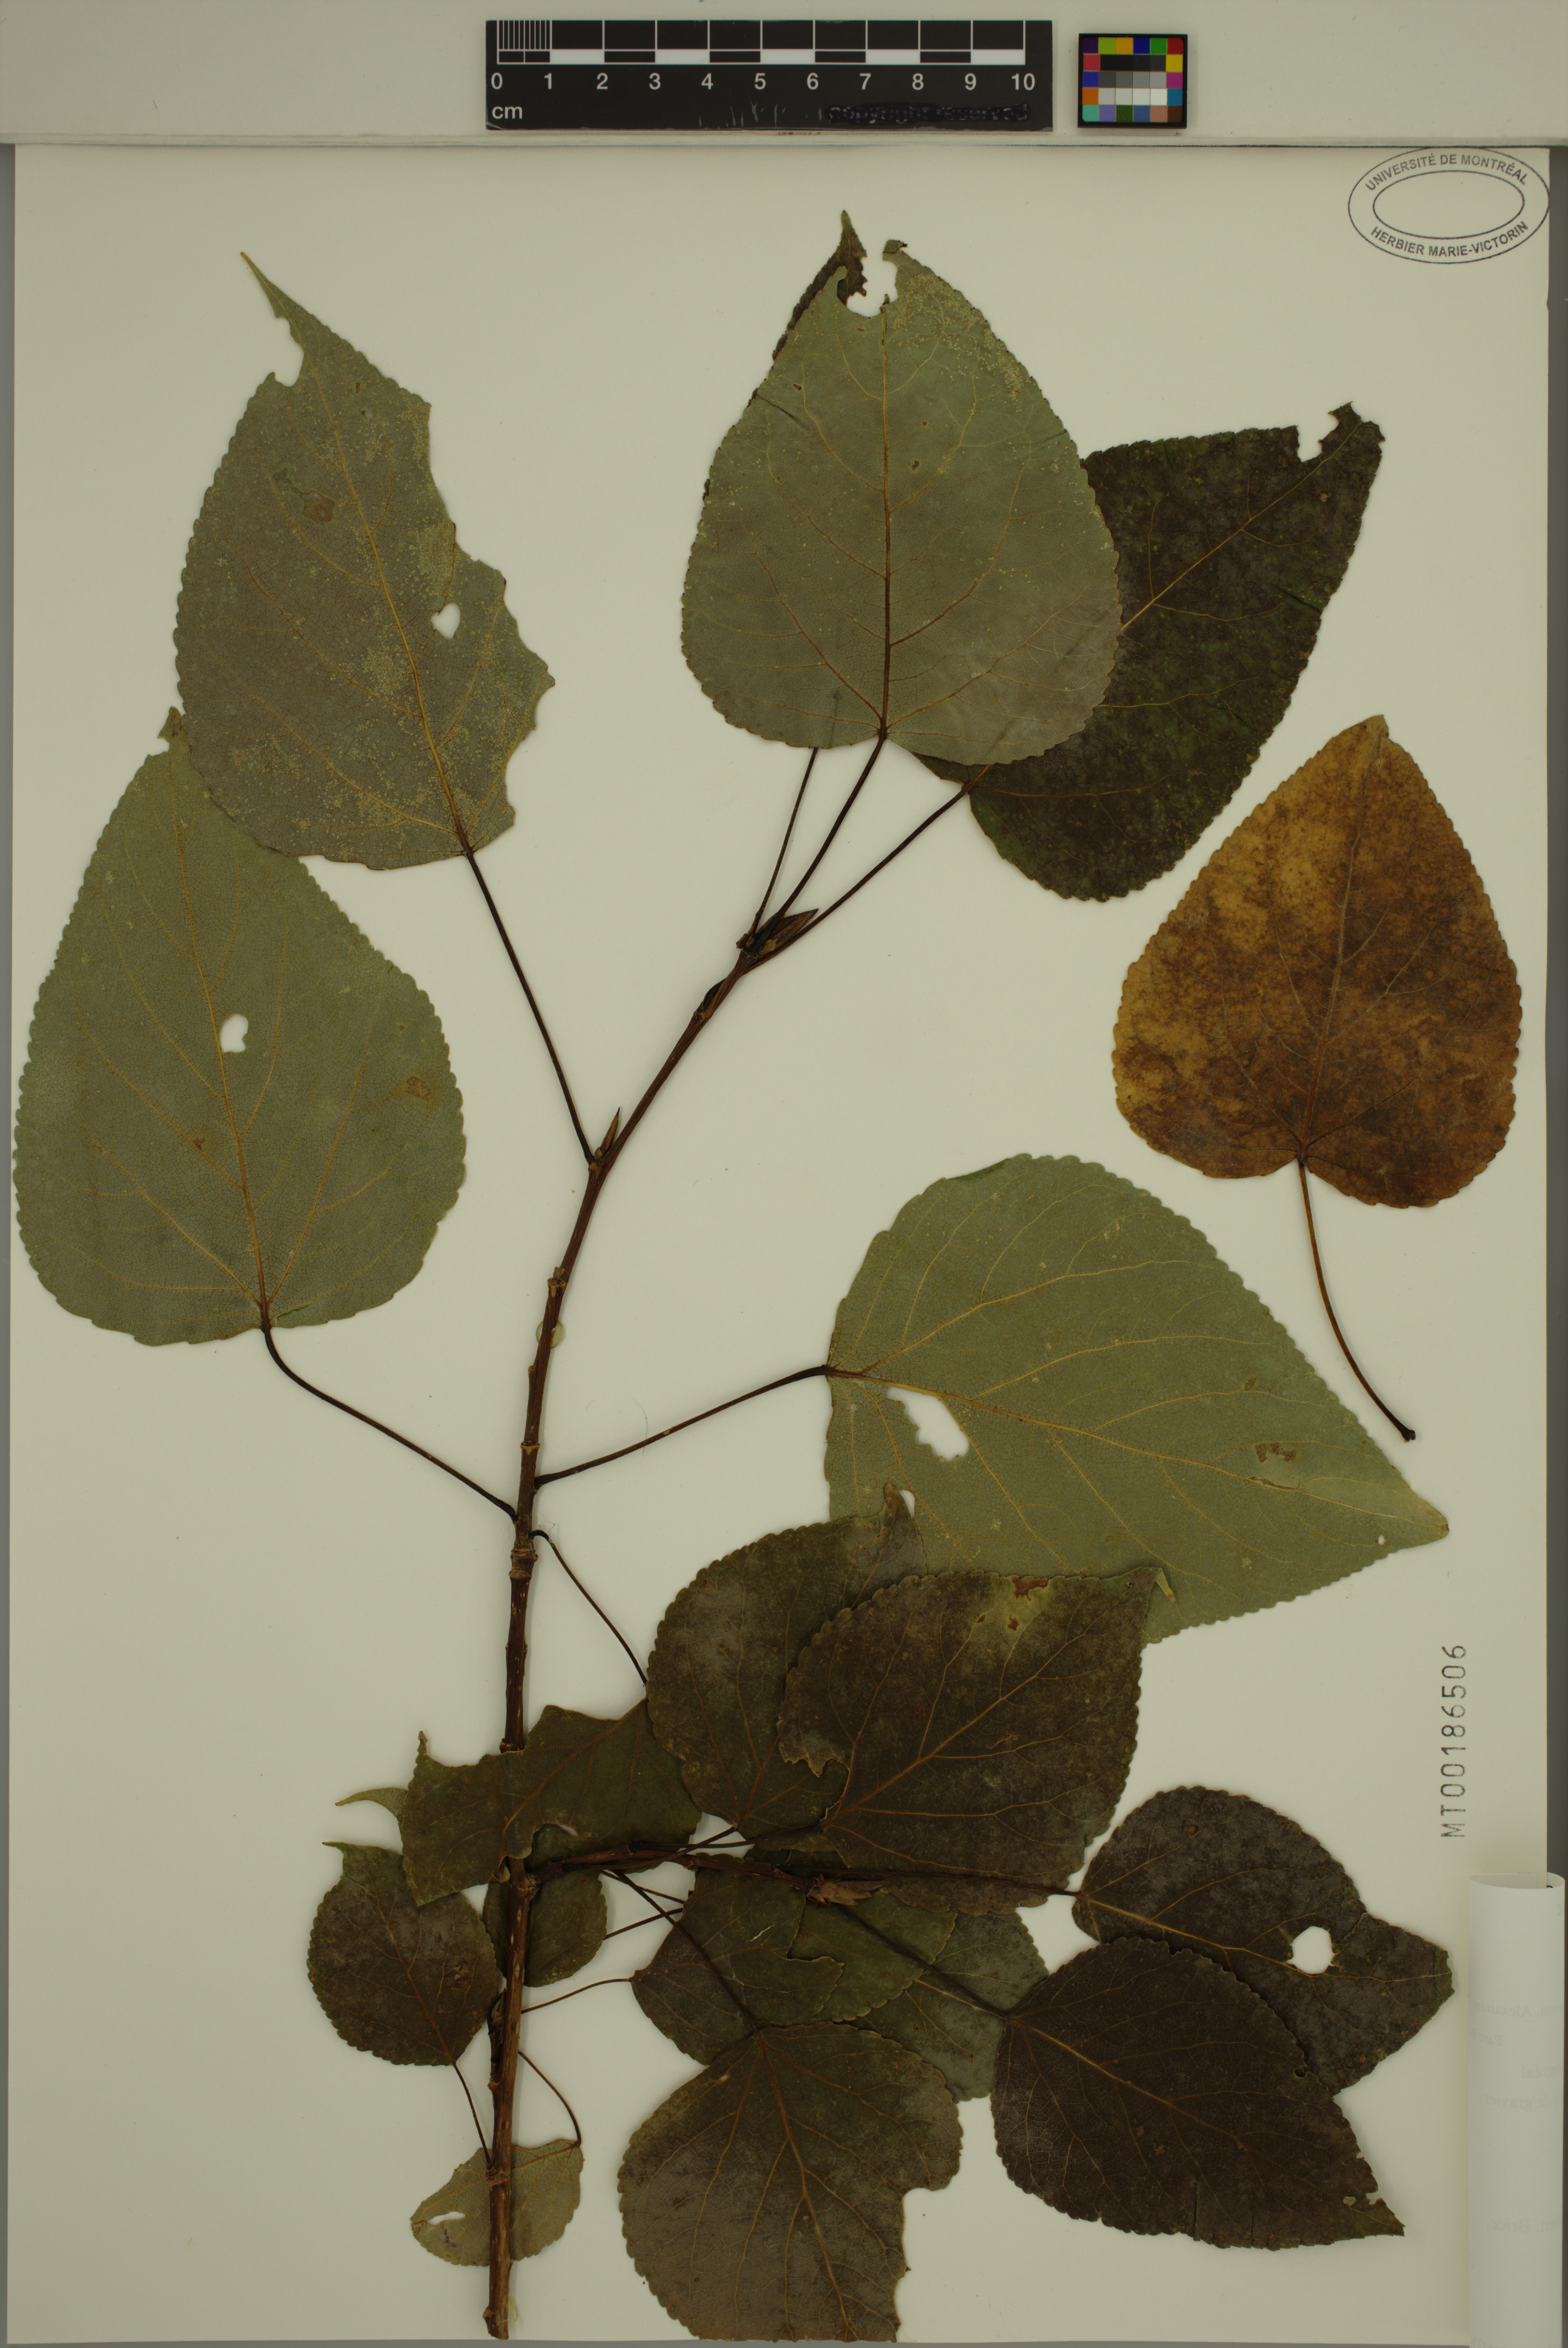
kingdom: Plantae
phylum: Tracheophyta
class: Magnoliopsida
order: Malpighiales
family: Salicaceae
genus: Populus
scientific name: Populus jackii
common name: Balm-of-gilead
